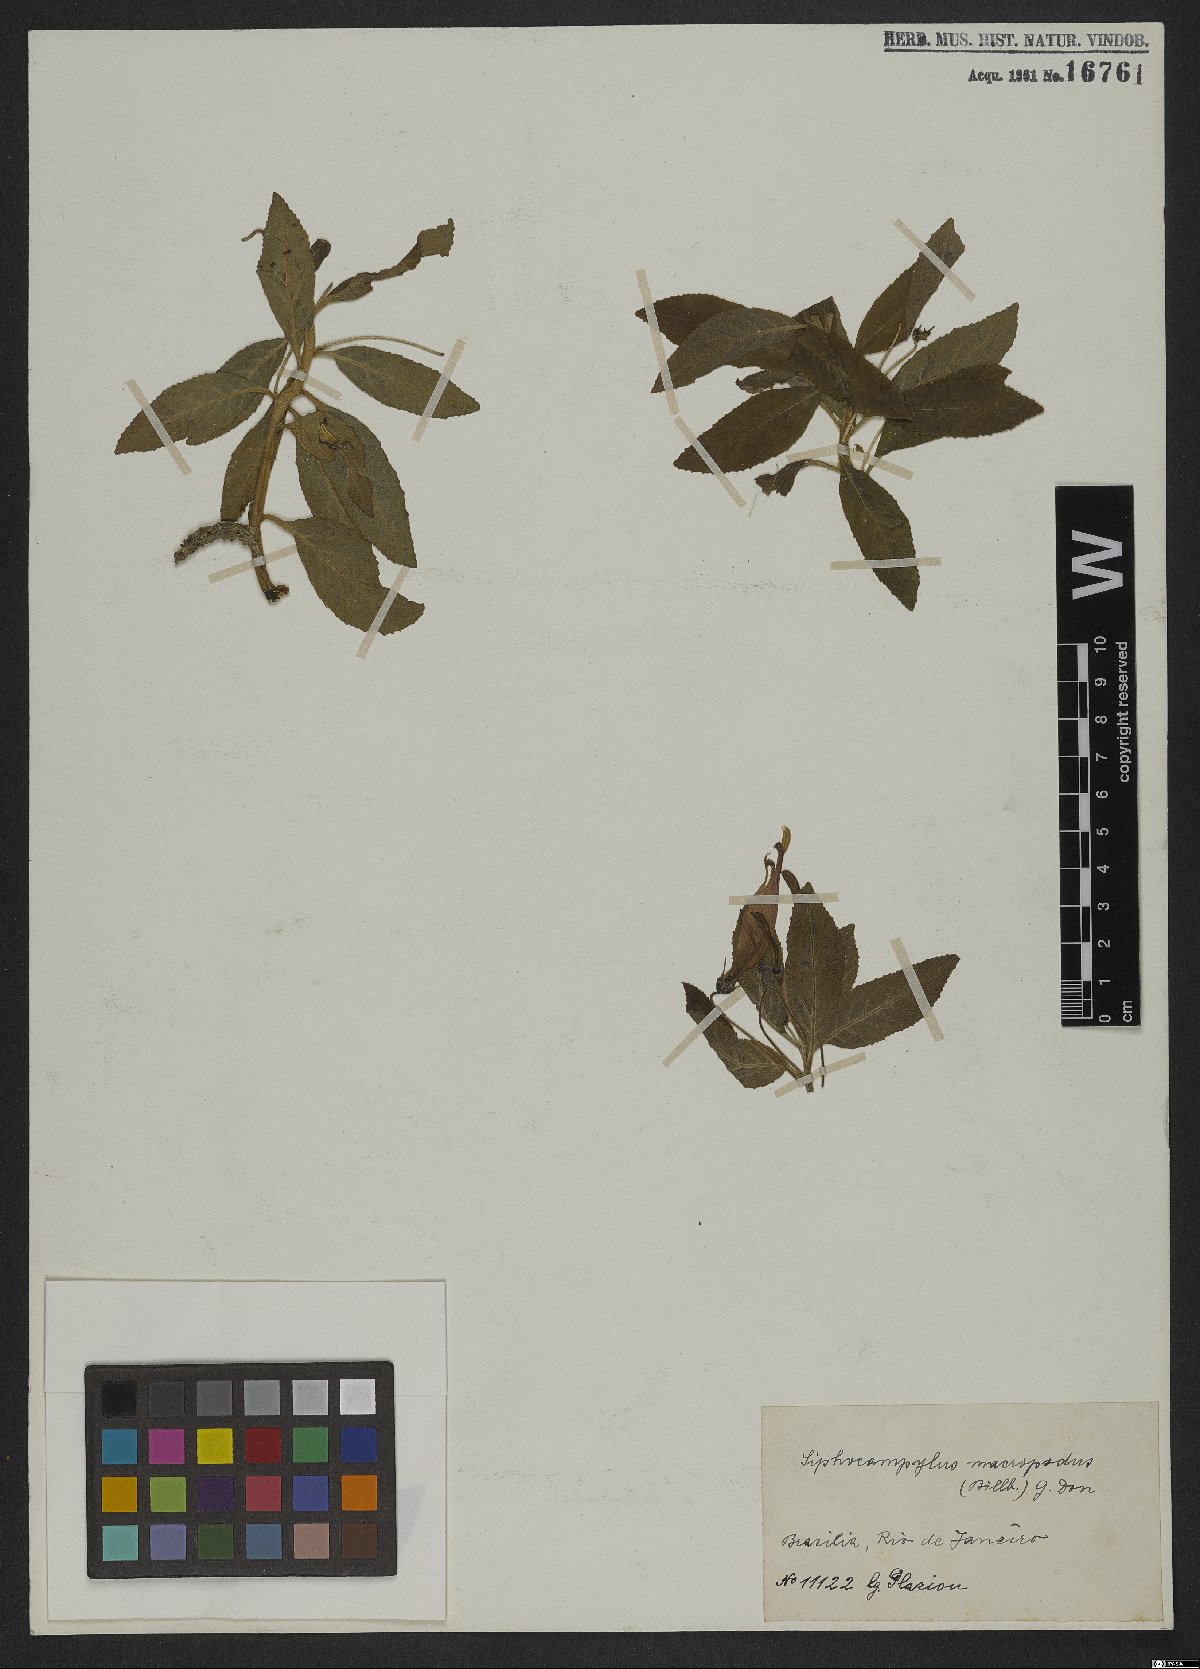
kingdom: Plantae
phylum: Tracheophyta
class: Magnoliopsida
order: Asterales
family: Campanulaceae
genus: Siphocampylus
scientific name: Siphocampylus macropodus
